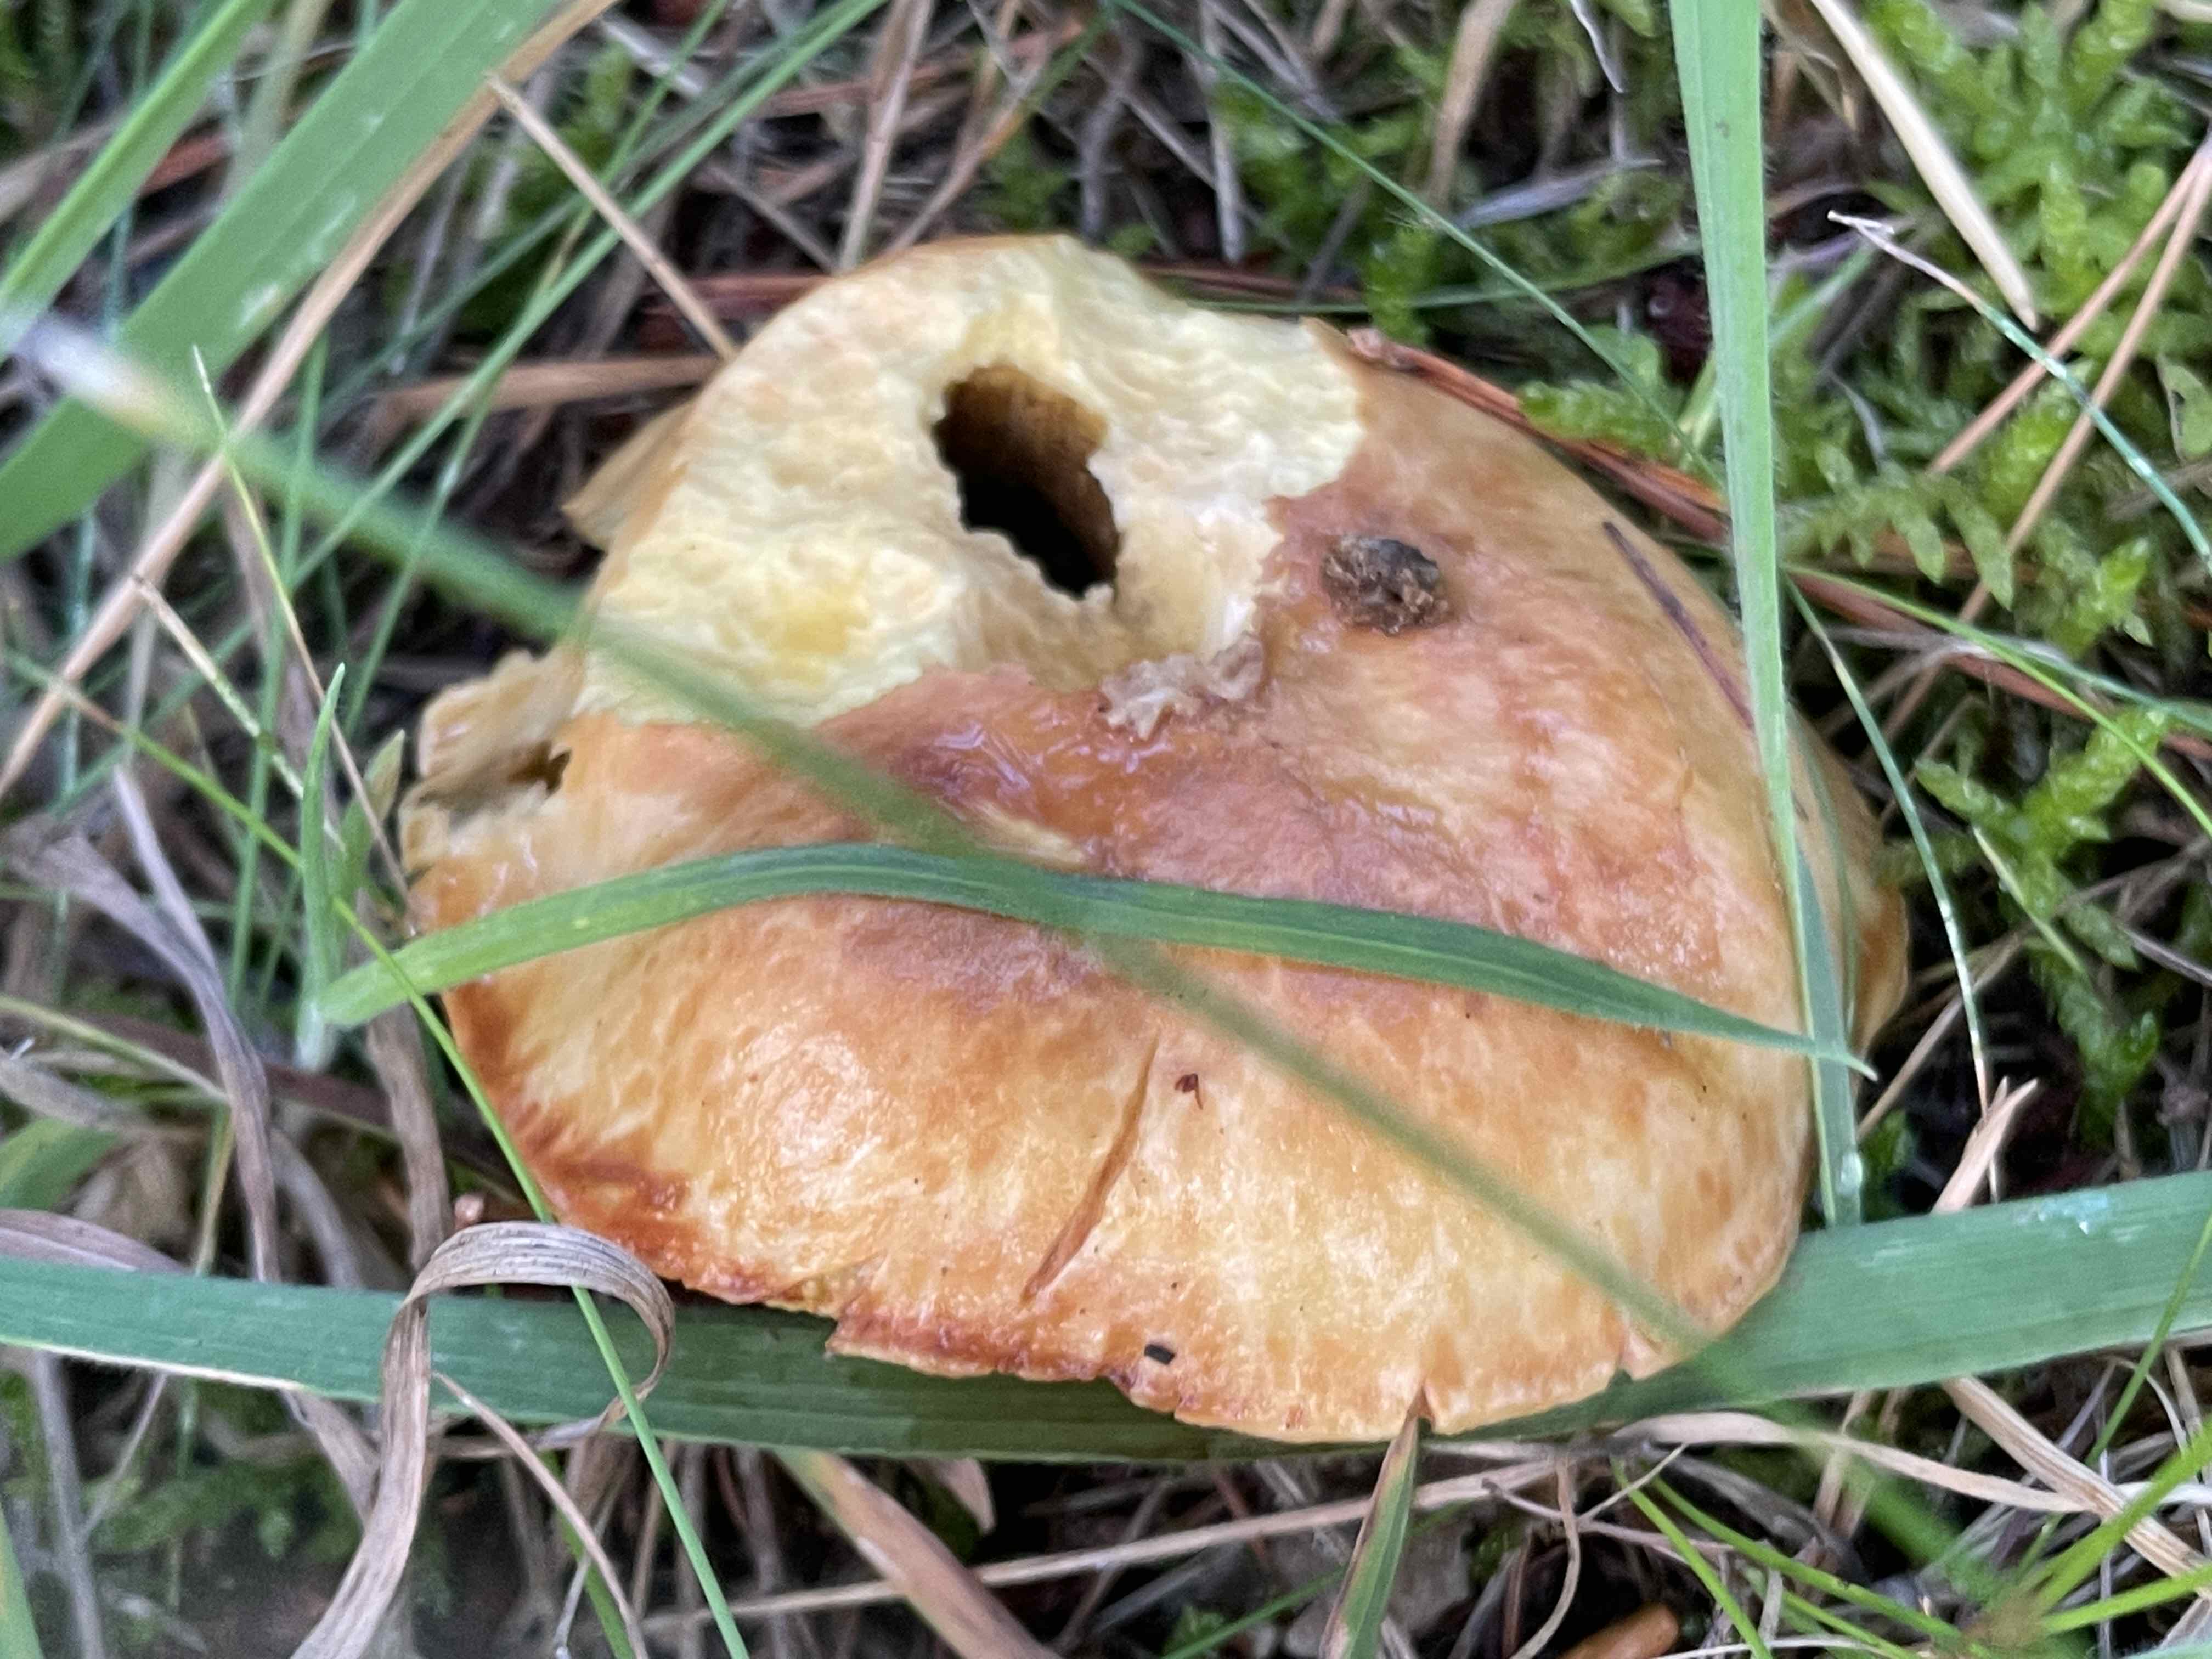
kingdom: Fungi
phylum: Basidiomycota
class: Agaricomycetes
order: Boletales
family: Suillaceae
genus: Suillus
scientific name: Suillus grevillei
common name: lærke-slimrørhat
